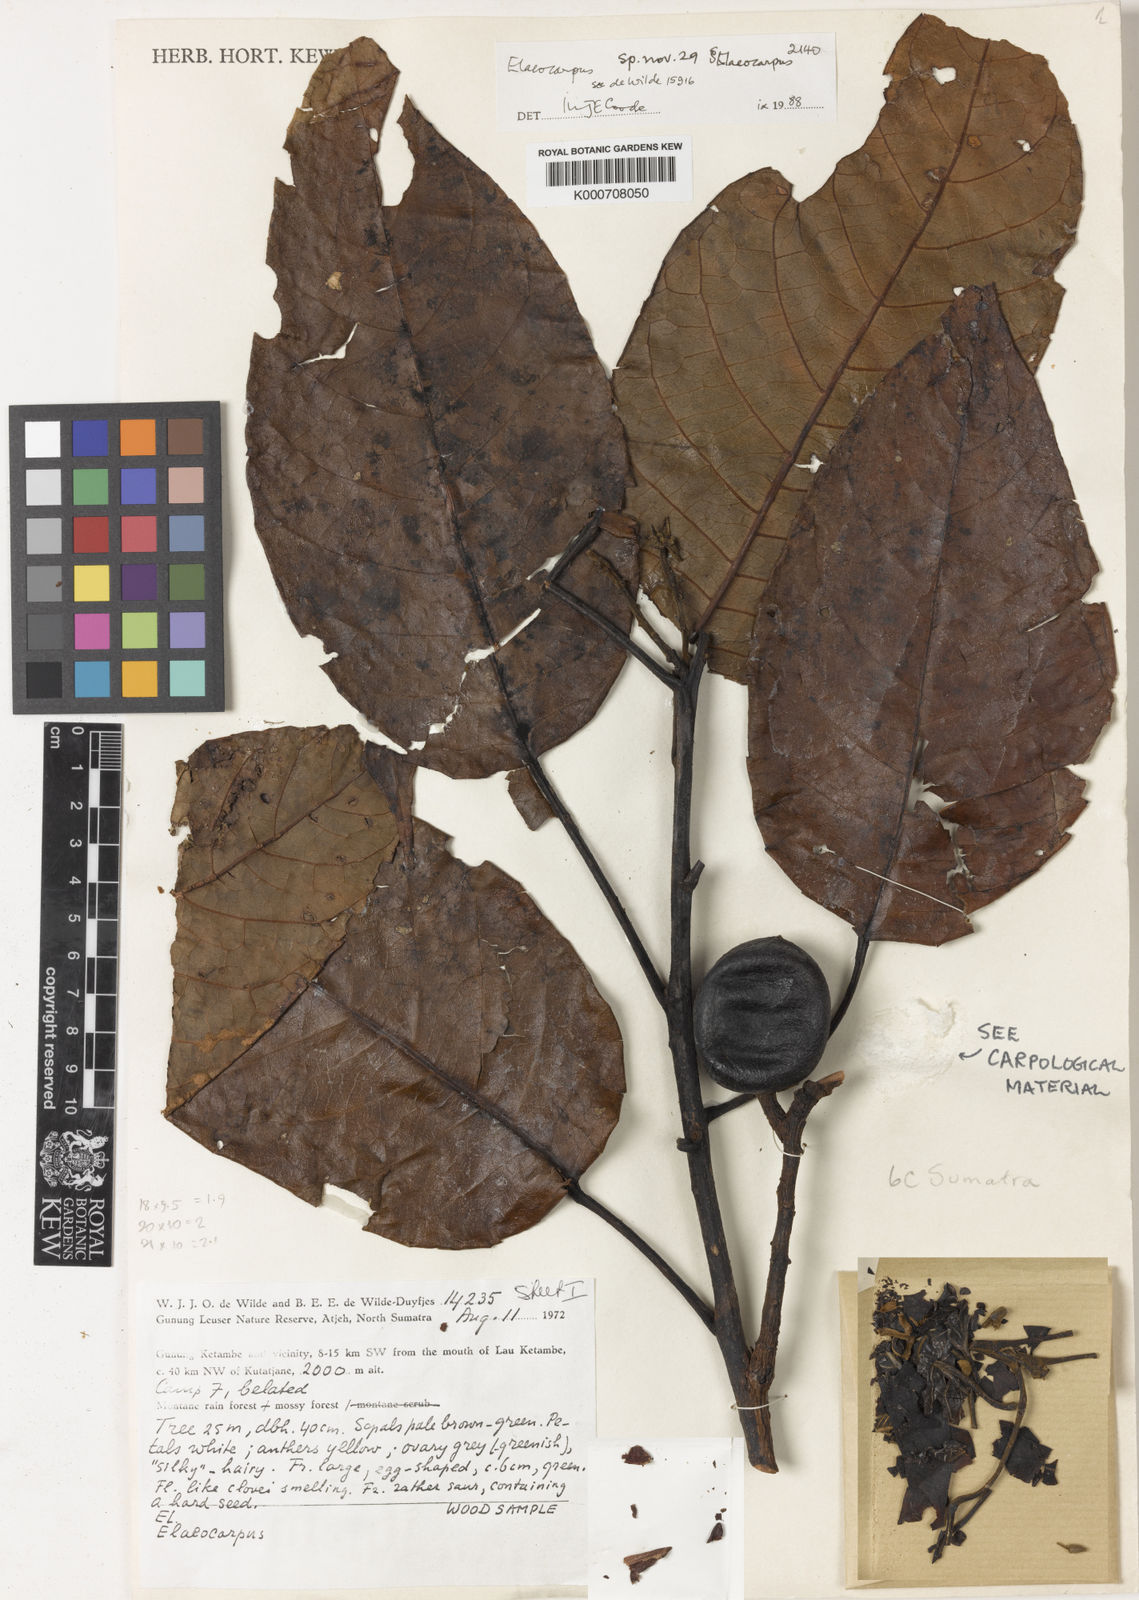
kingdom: Plantae
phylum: Tracheophyta
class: Magnoliopsida
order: Oxalidales
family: Elaeocarpaceae
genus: Elaeocarpus
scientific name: Elaeocarpus brigittae
